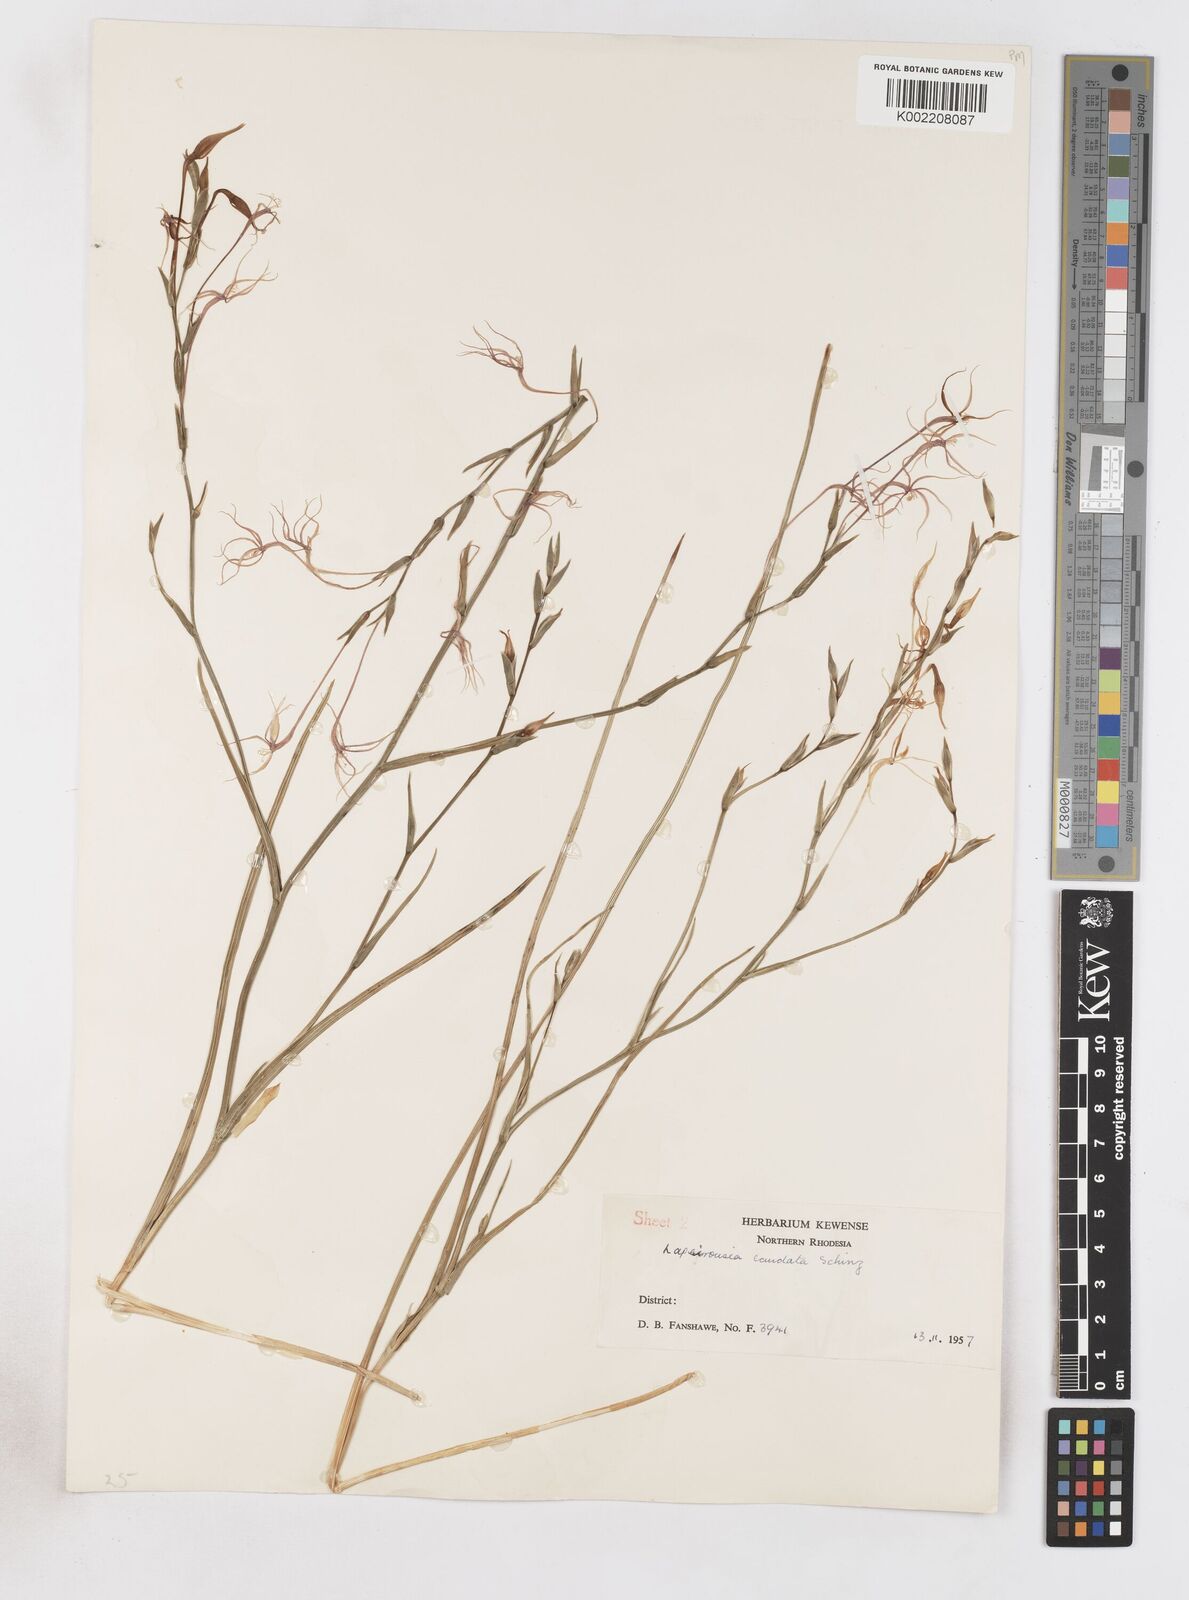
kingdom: Plantae
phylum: Tracheophyta
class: Liliopsida
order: Asparagales
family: Iridaceae
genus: Lapeirousia
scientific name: Lapeirousia caudata
